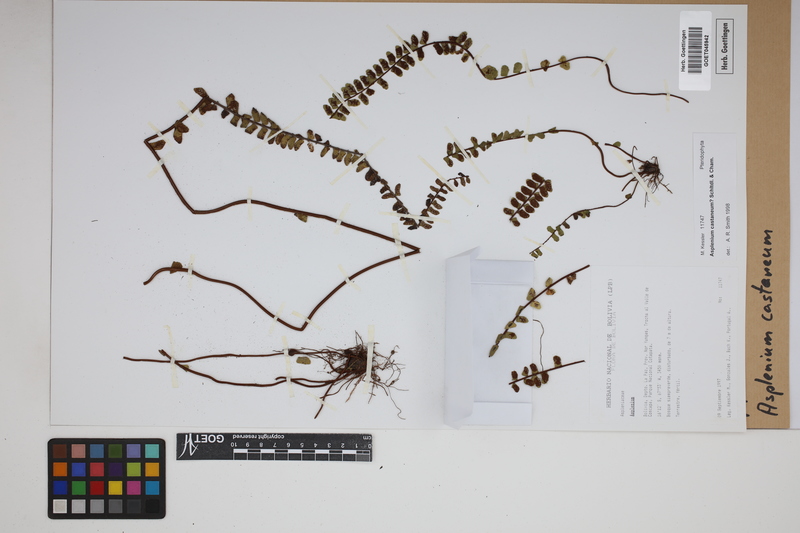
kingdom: Plantae
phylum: Tracheophyta
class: Polypodiopsida
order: Polypodiales
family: Aspleniaceae
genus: Asplenium
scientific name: Asplenium castaneum
